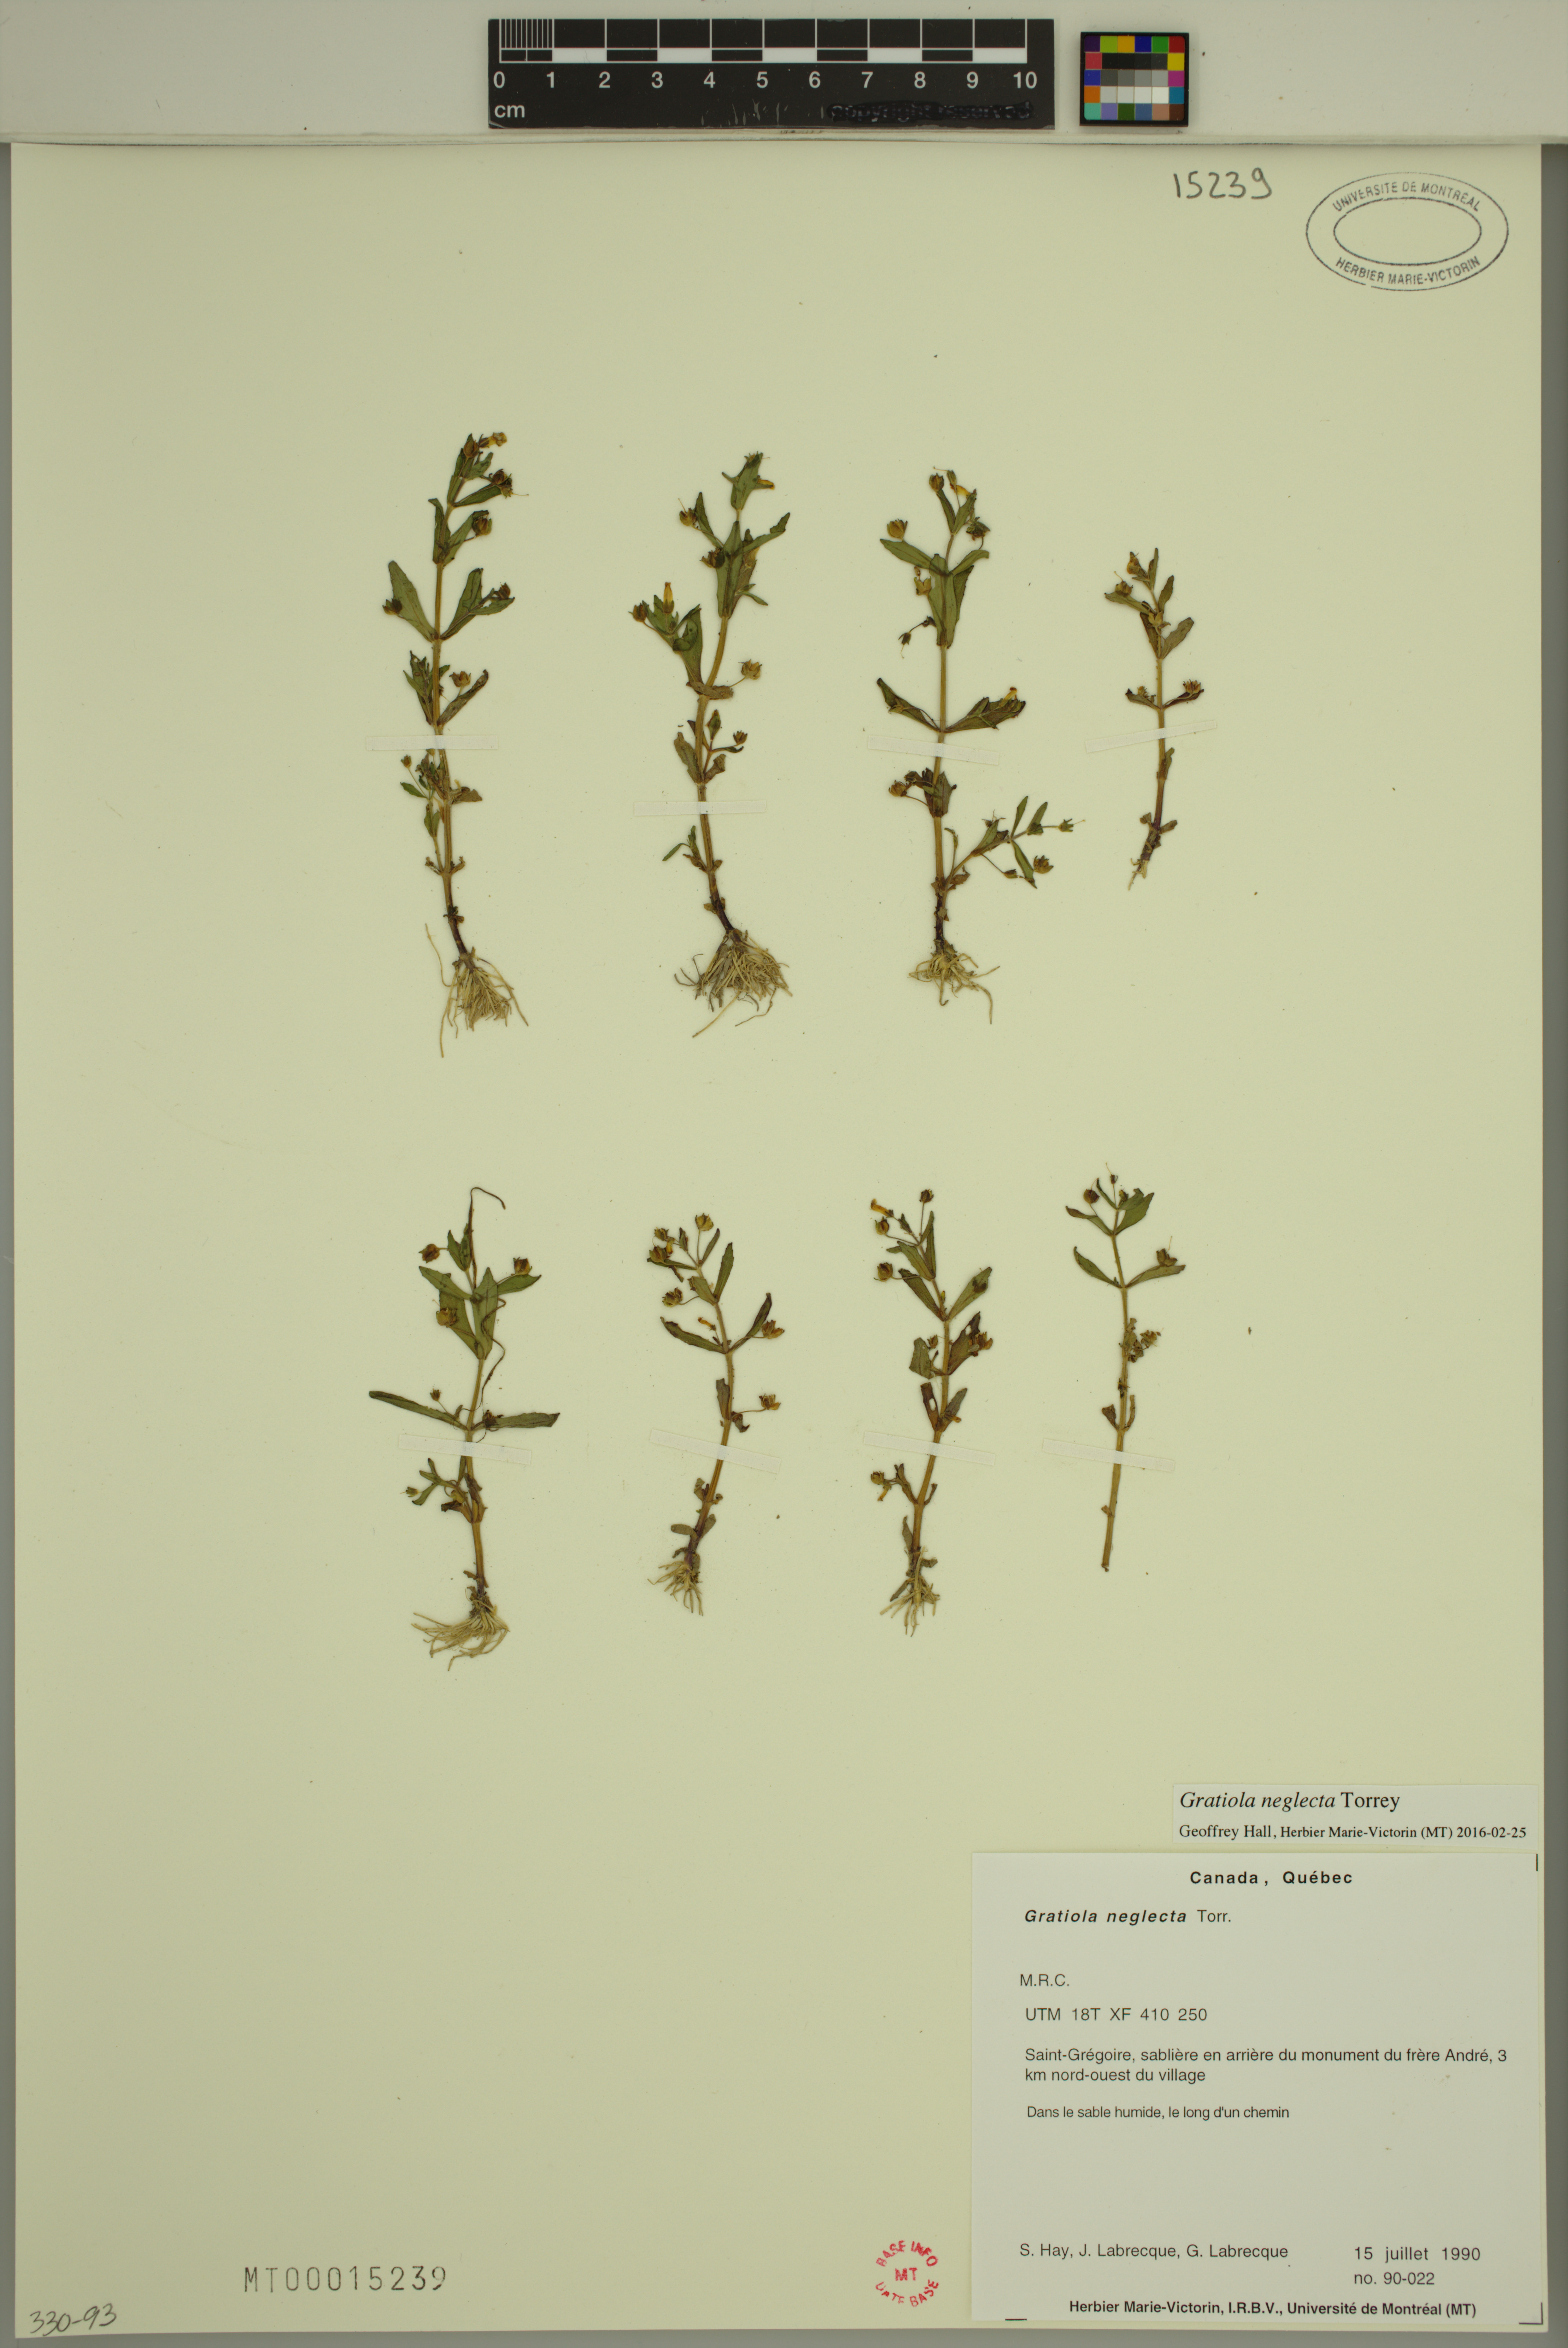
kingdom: Plantae
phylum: Tracheophyta
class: Magnoliopsida
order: Lamiales
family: Plantaginaceae
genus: Gratiola
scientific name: Gratiola neglecta
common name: American hedge-hyssop
